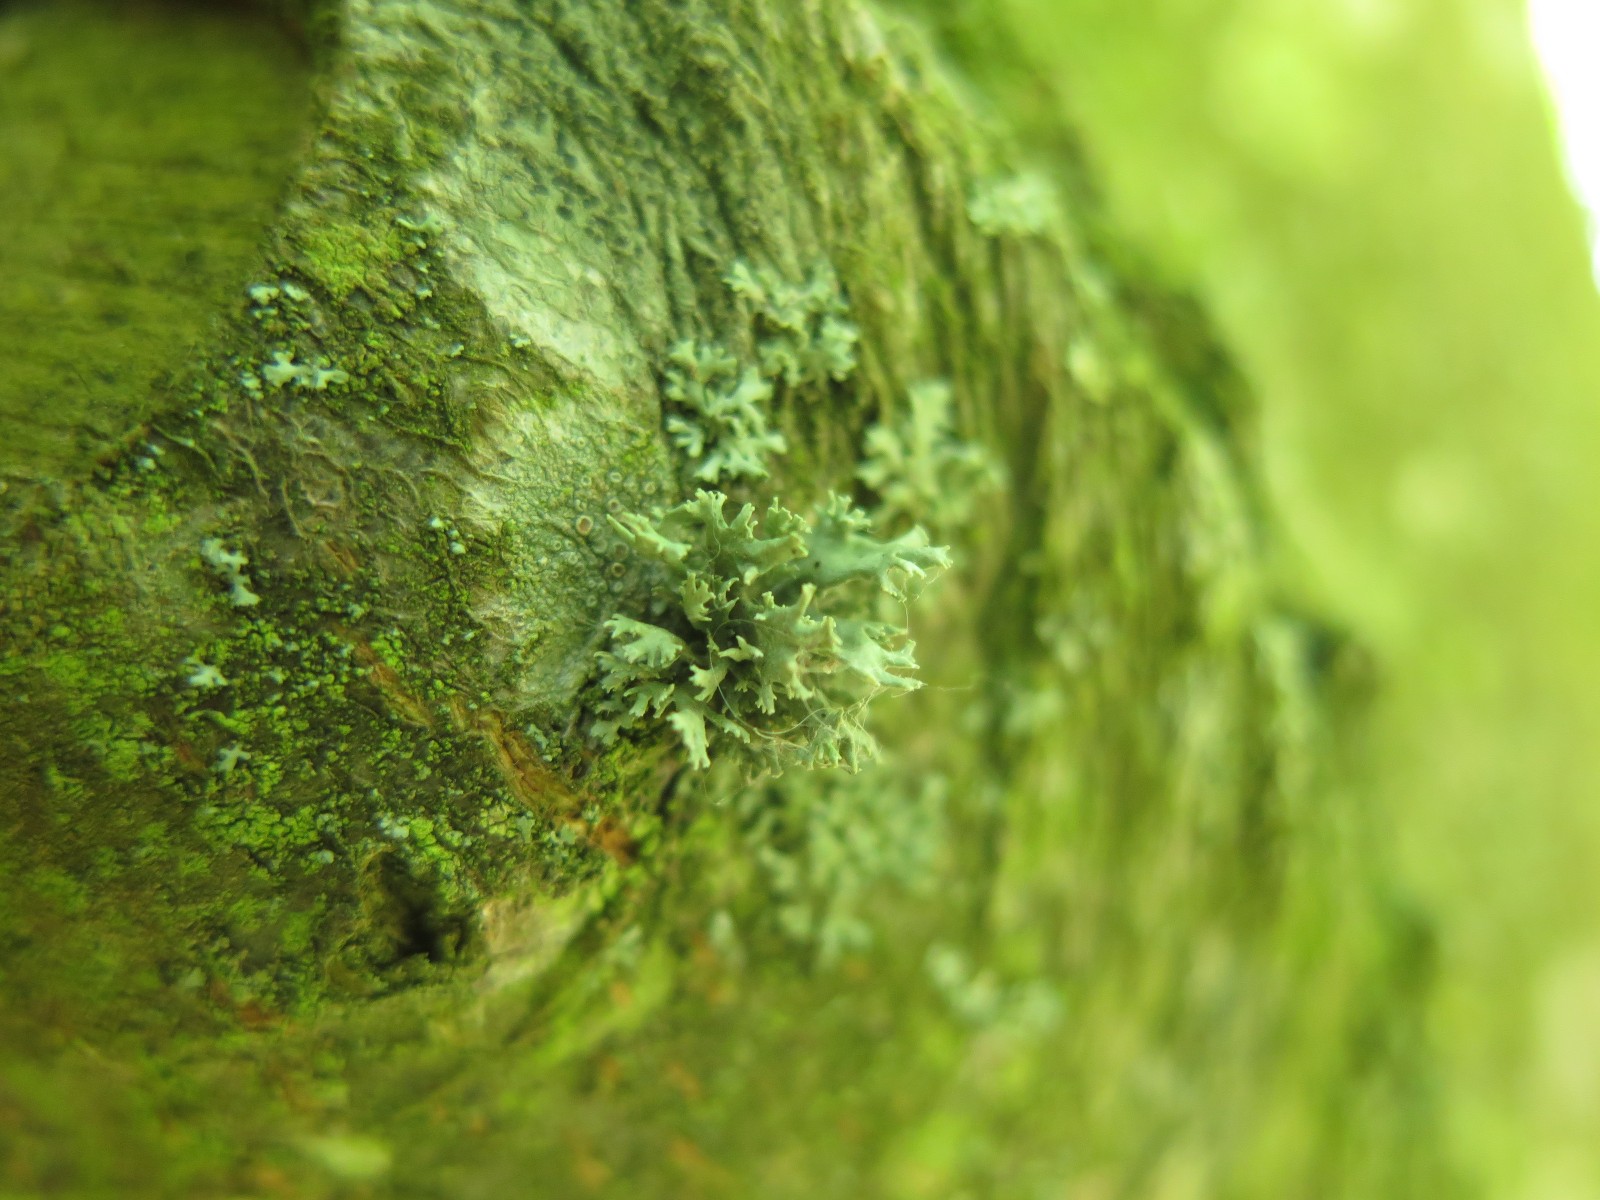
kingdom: Fungi
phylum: Ascomycota
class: Lecanoromycetes
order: Lecanorales
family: Parmeliaceae
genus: Evernia
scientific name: Evernia prunastri
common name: almindelig slåenlav
